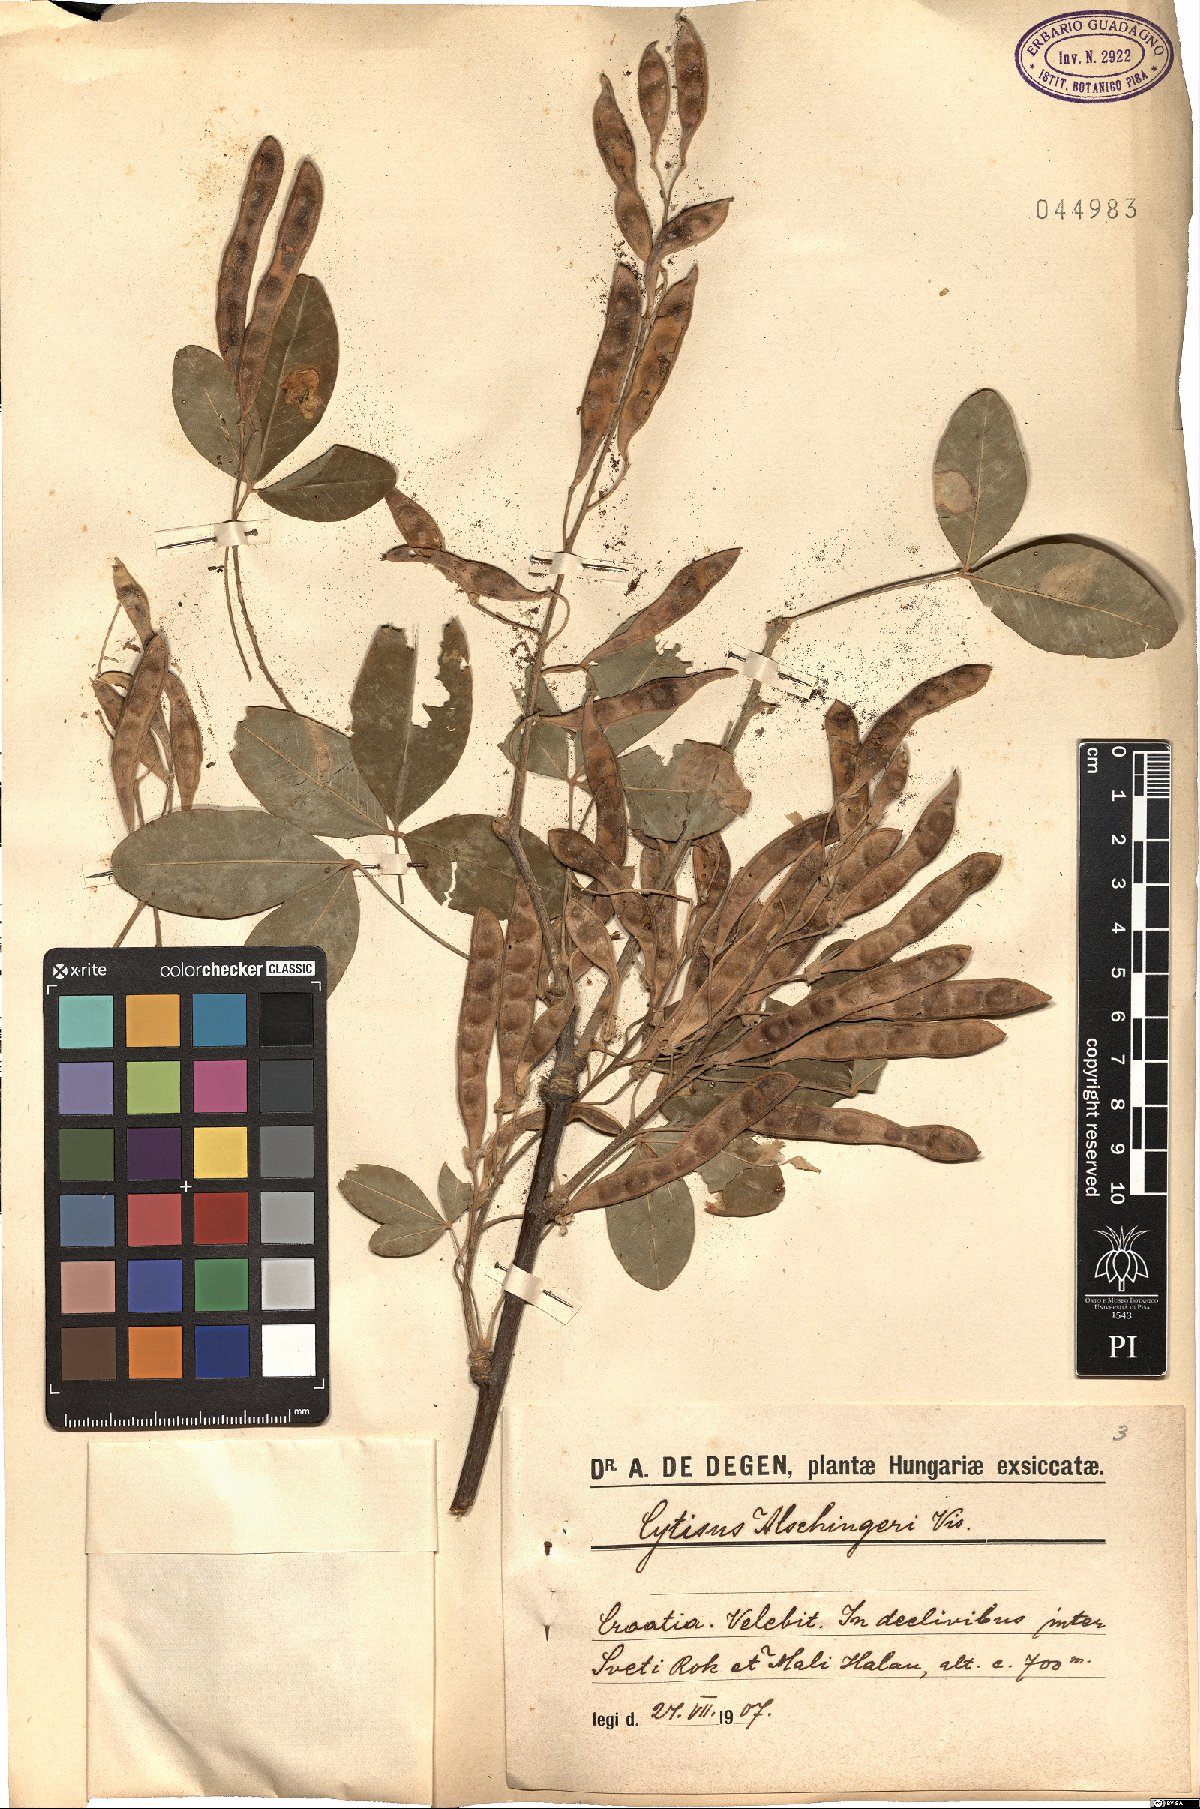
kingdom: Plantae
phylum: Tracheophyta
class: Magnoliopsida
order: Fabales
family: Fabaceae
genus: Laburnum
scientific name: Laburnum anagyroides
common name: Laburnum
